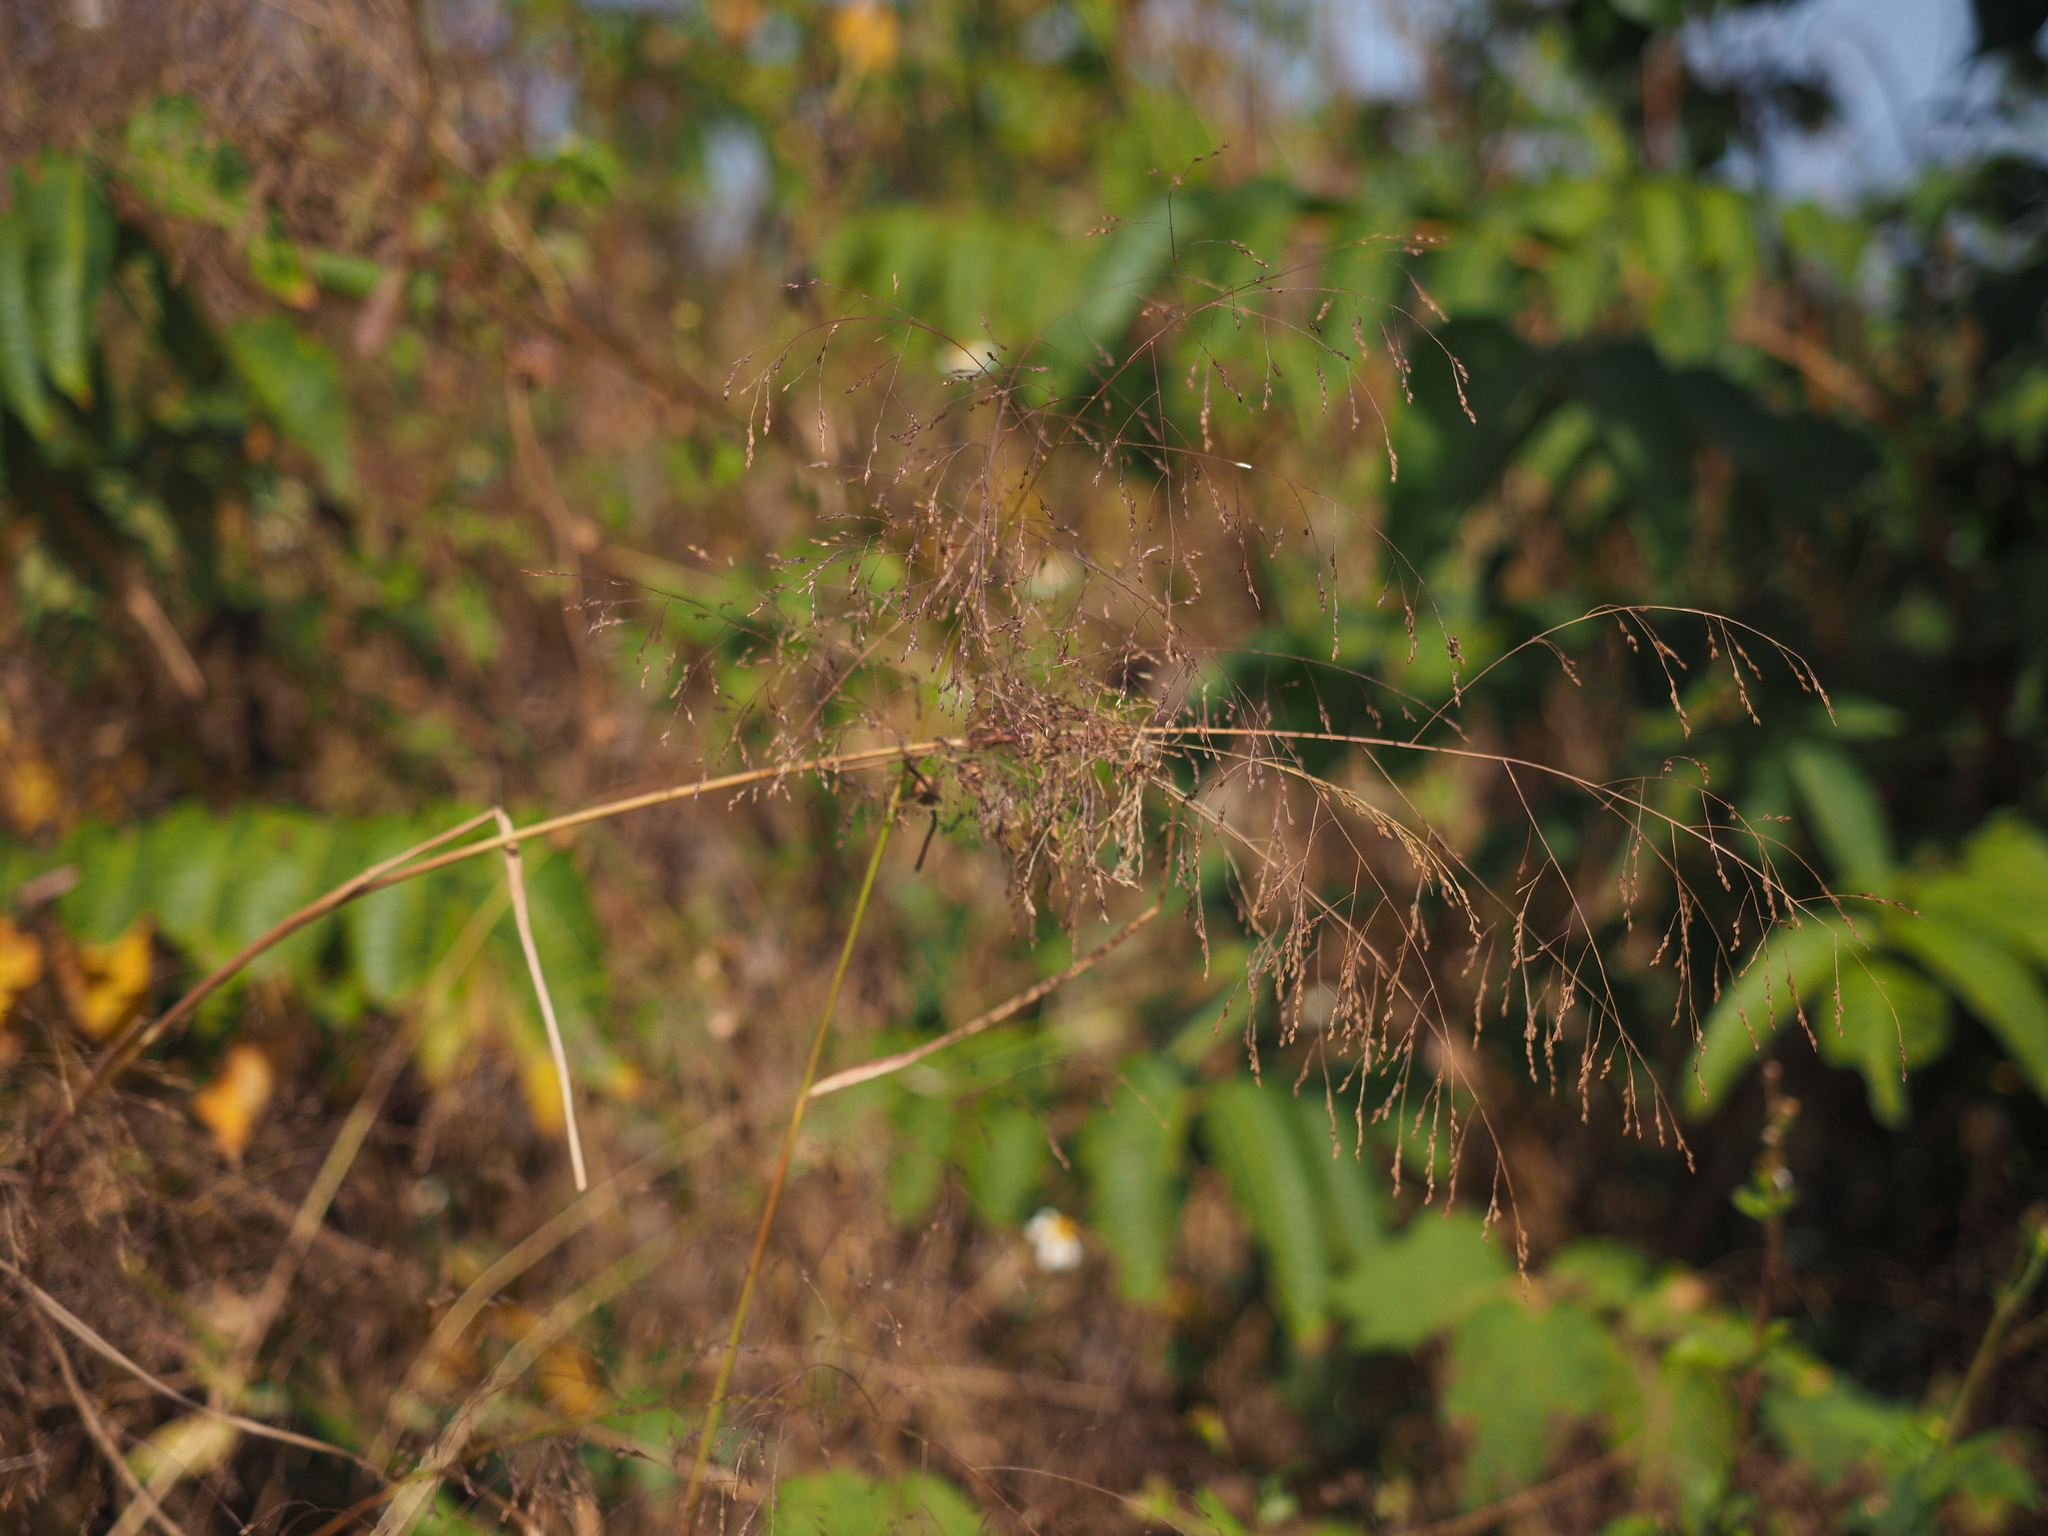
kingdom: Plantae
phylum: Tracheophyta
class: Liliopsida
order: Poales
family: Poaceae
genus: Panicum
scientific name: Panicum bisulcatum
